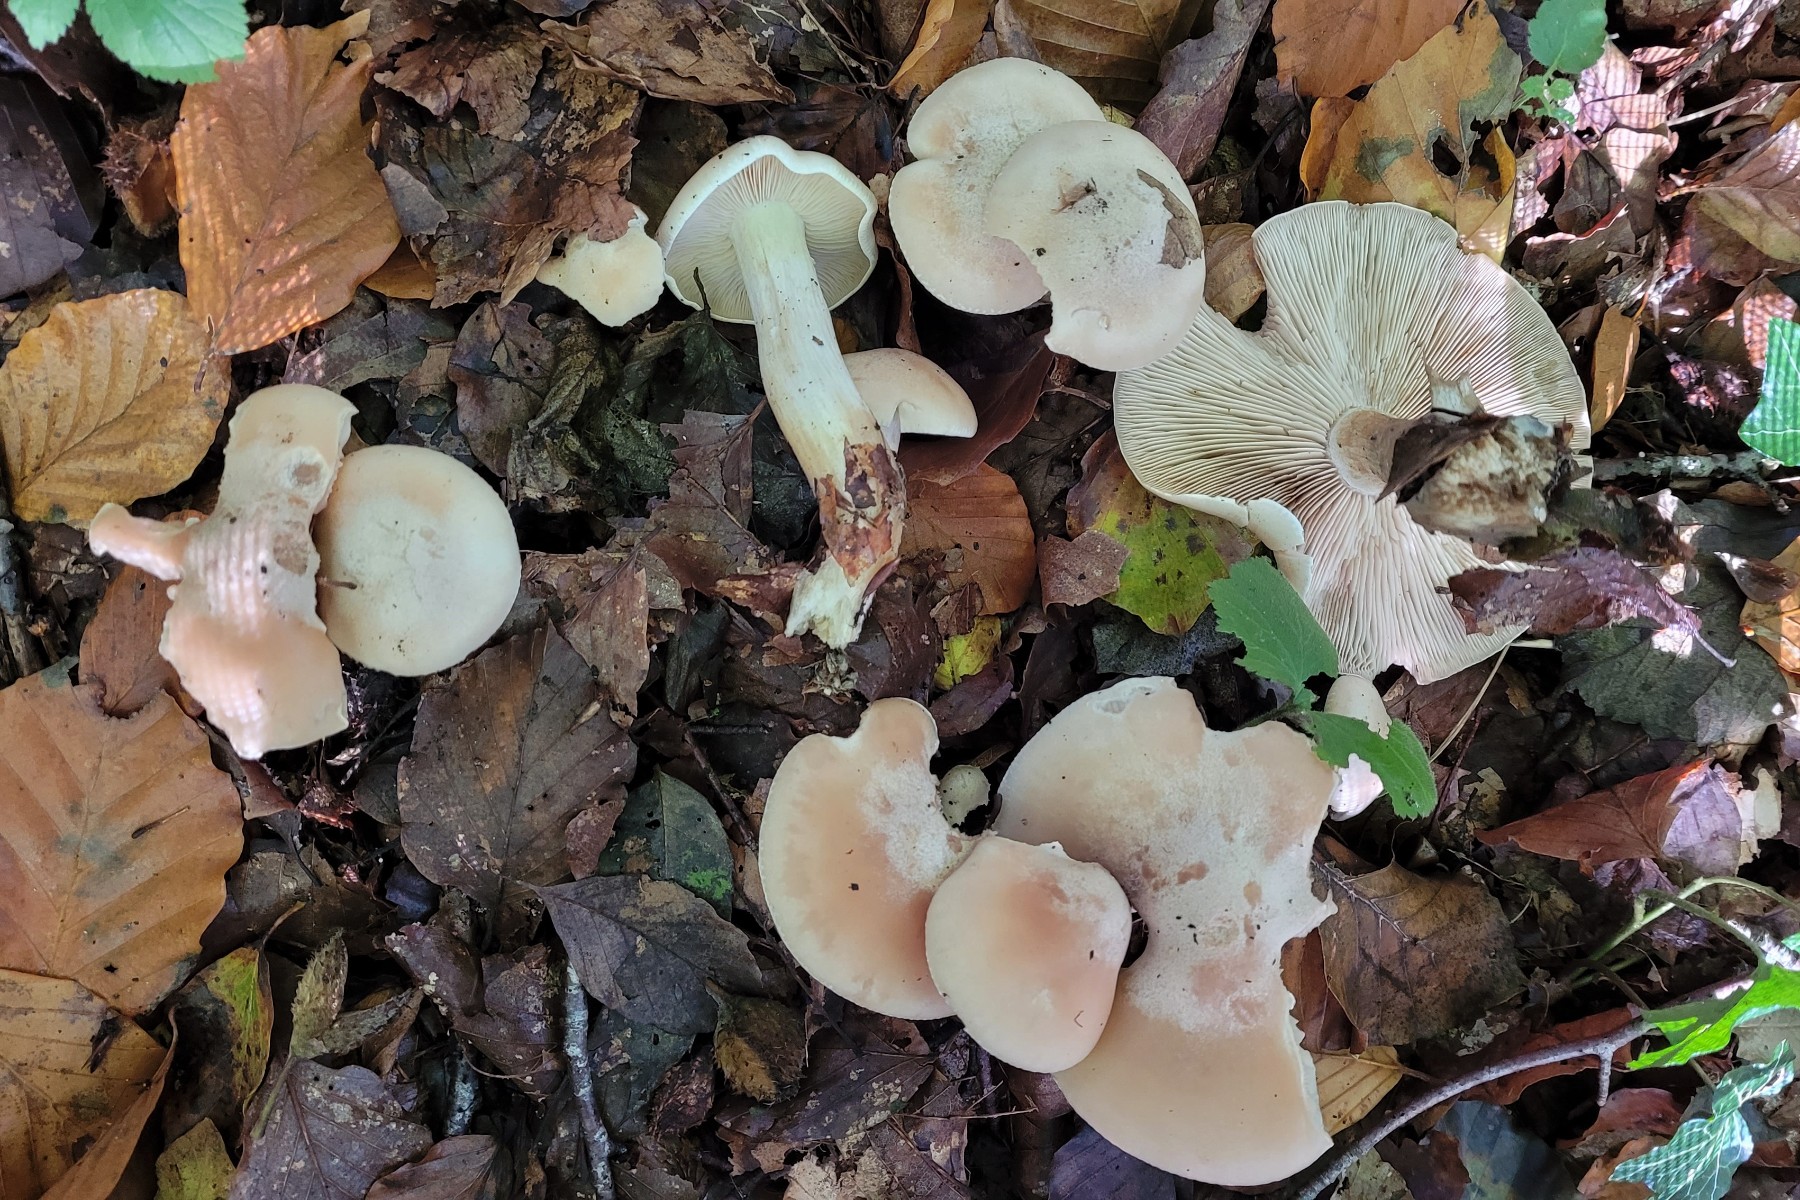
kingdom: Fungi
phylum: Basidiomycota
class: Agaricomycetes
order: Agaricales
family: Tricholomataceae
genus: Lepista
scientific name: Lepista irina
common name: violduftende hekseringshat
